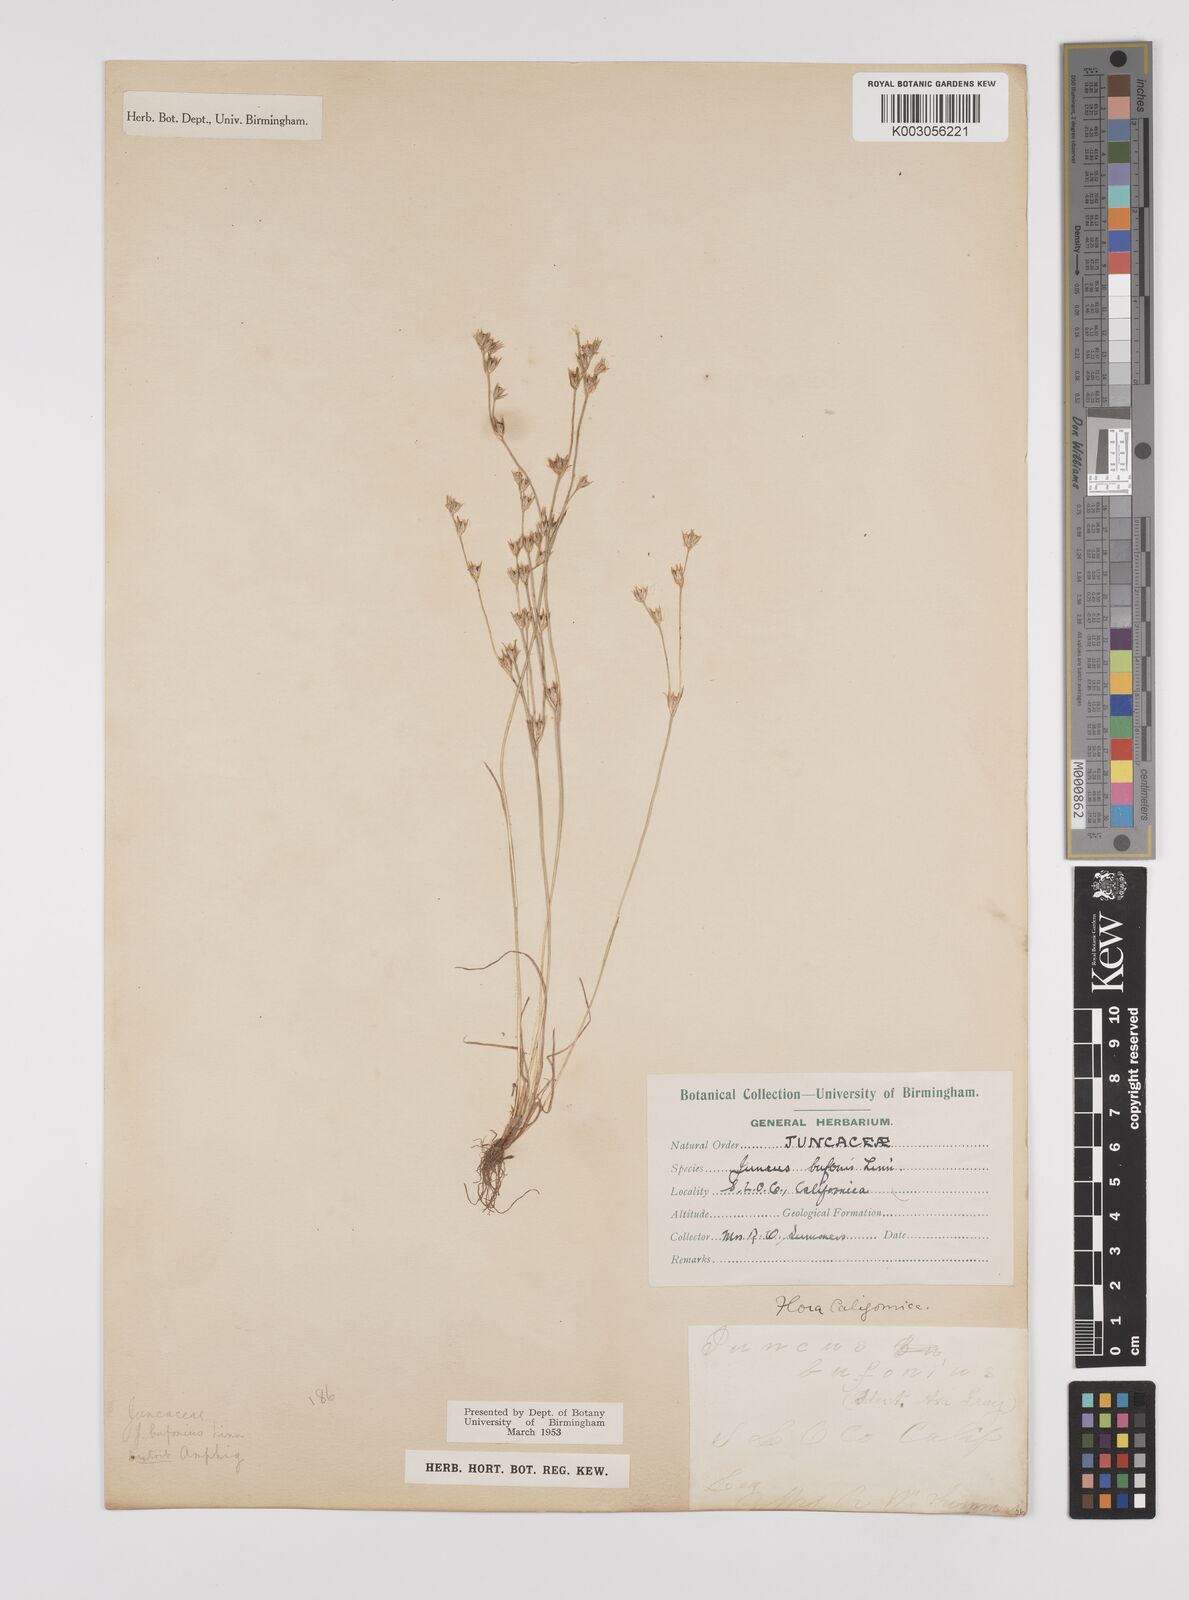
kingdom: Plantae
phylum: Tracheophyta
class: Liliopsida
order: Poales
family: Juncaceae
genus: Juncus
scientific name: Juncus bufonius
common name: Toad rush
